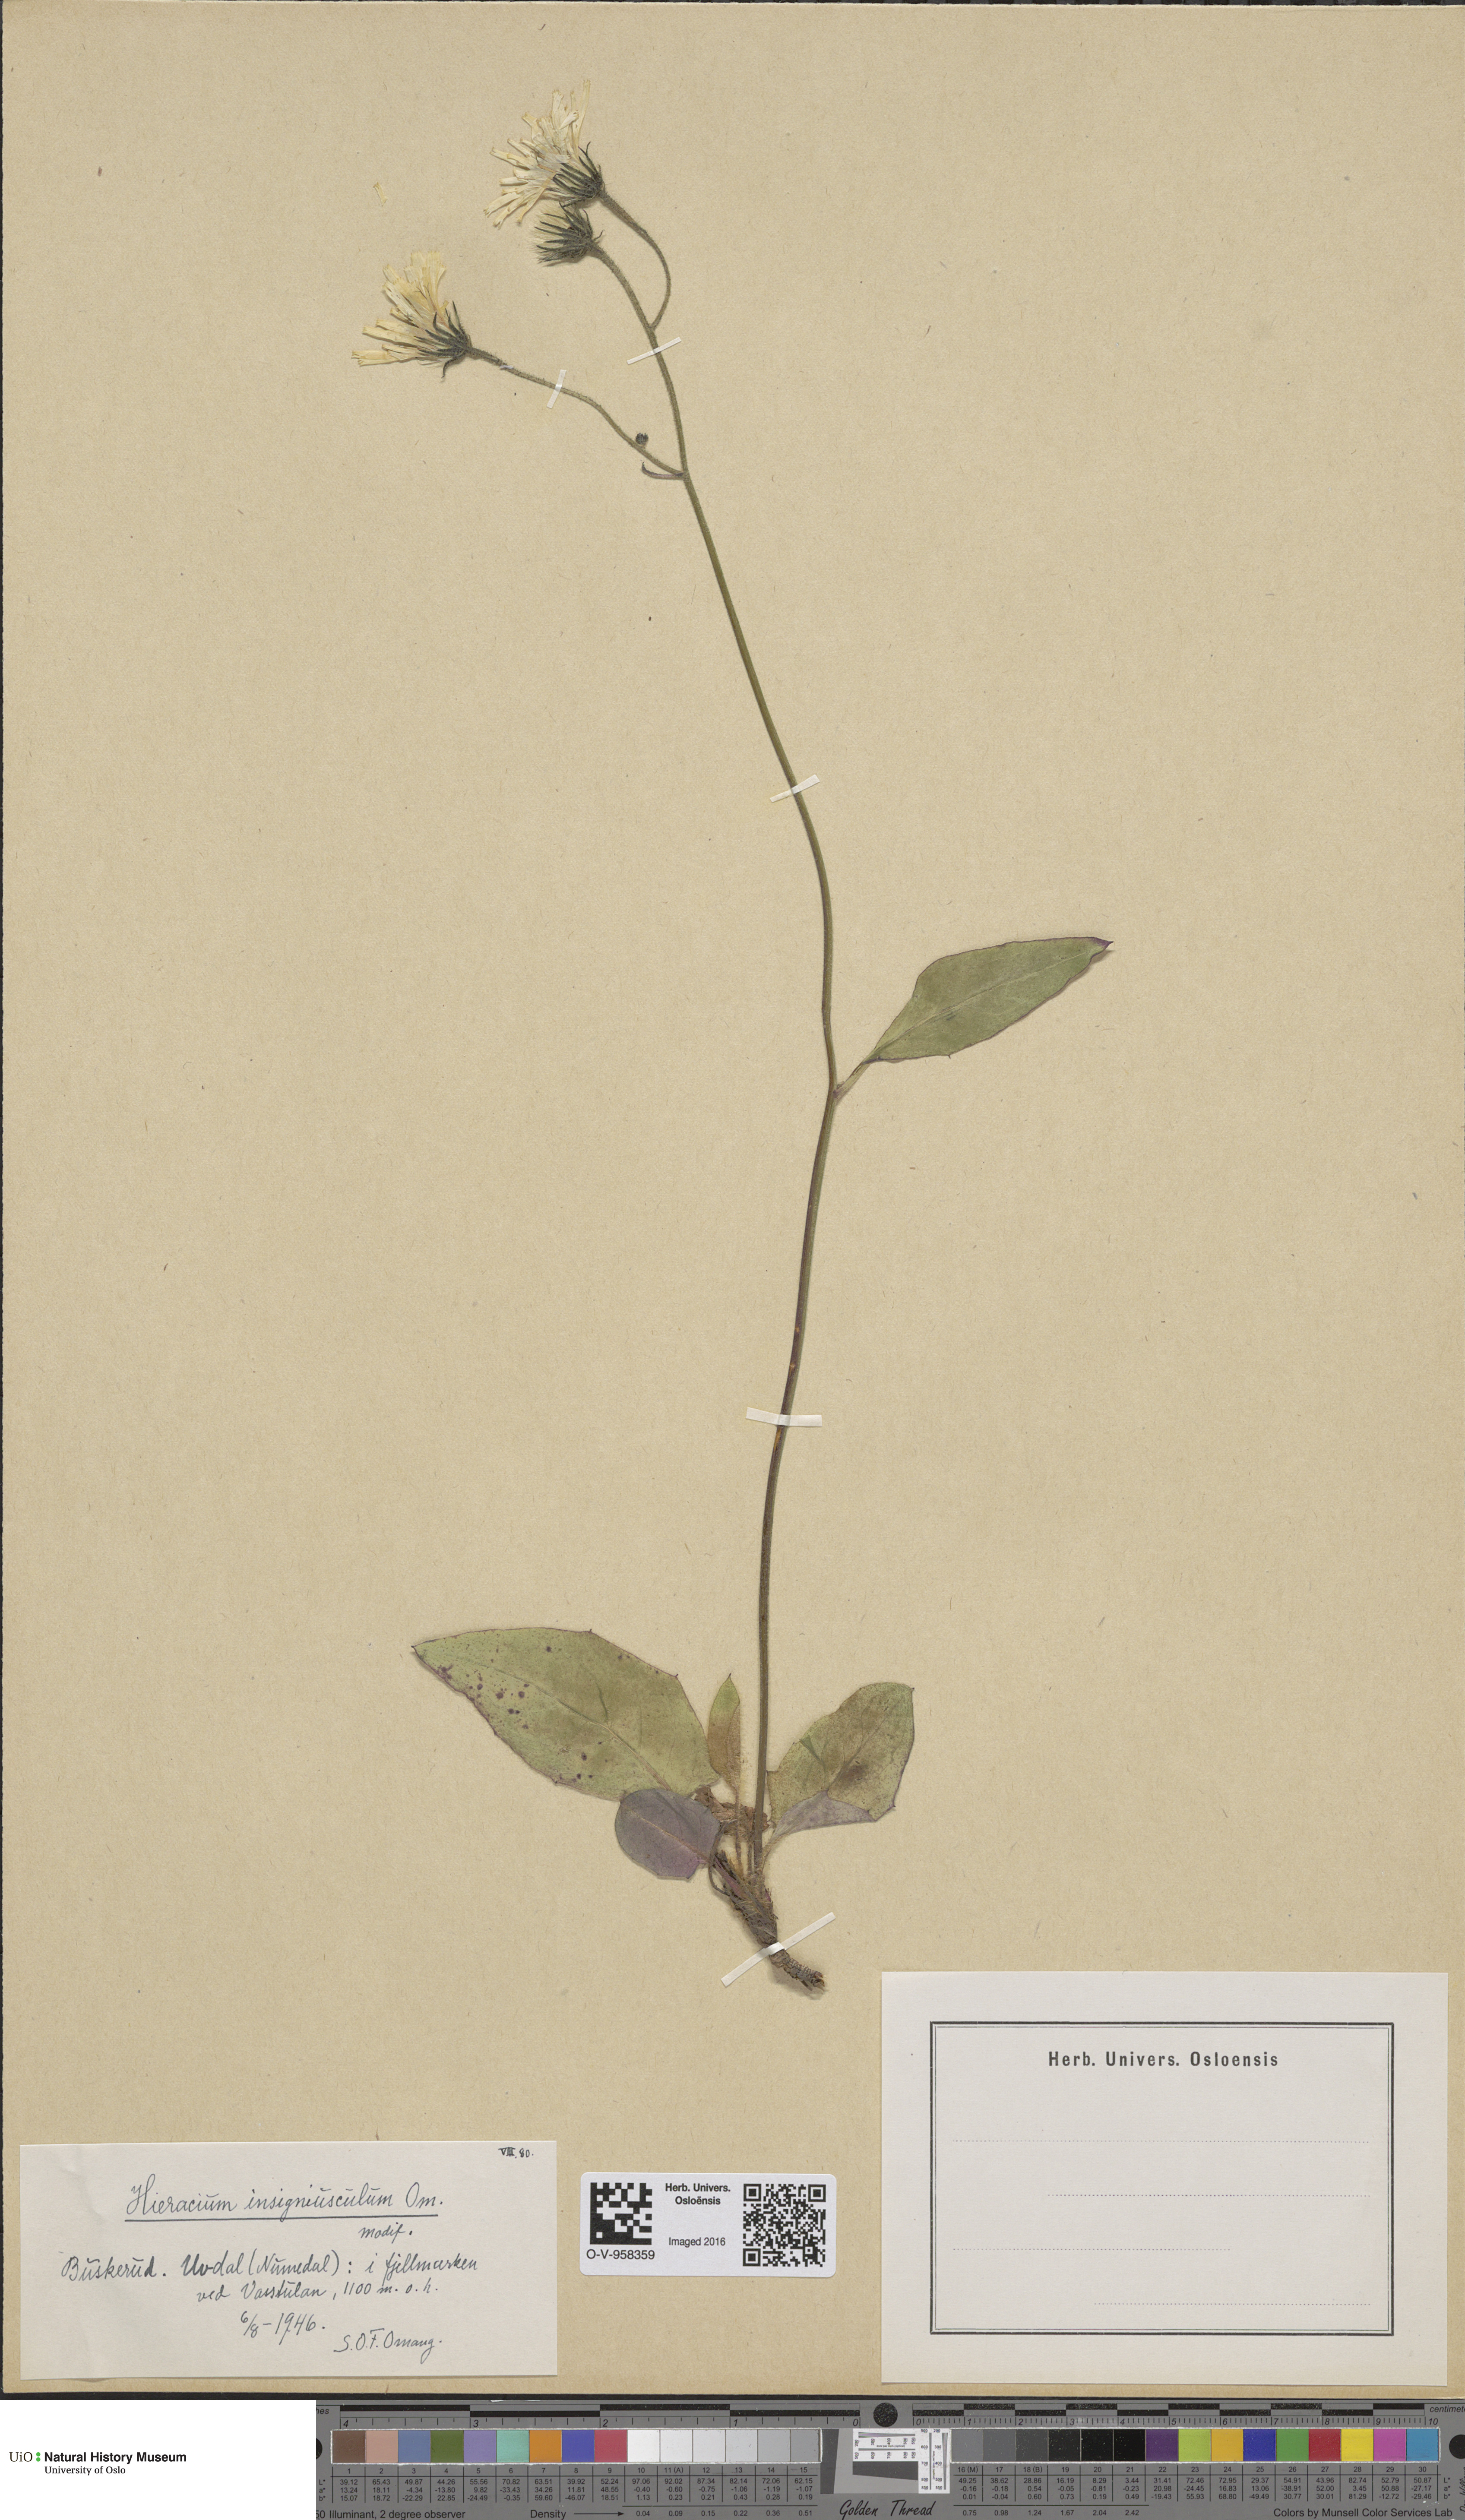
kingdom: Plantae
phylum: Tracheophyta
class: Magnoliopsida
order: Asterales
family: Asteraceae
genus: Hieracium
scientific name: Hieracium
